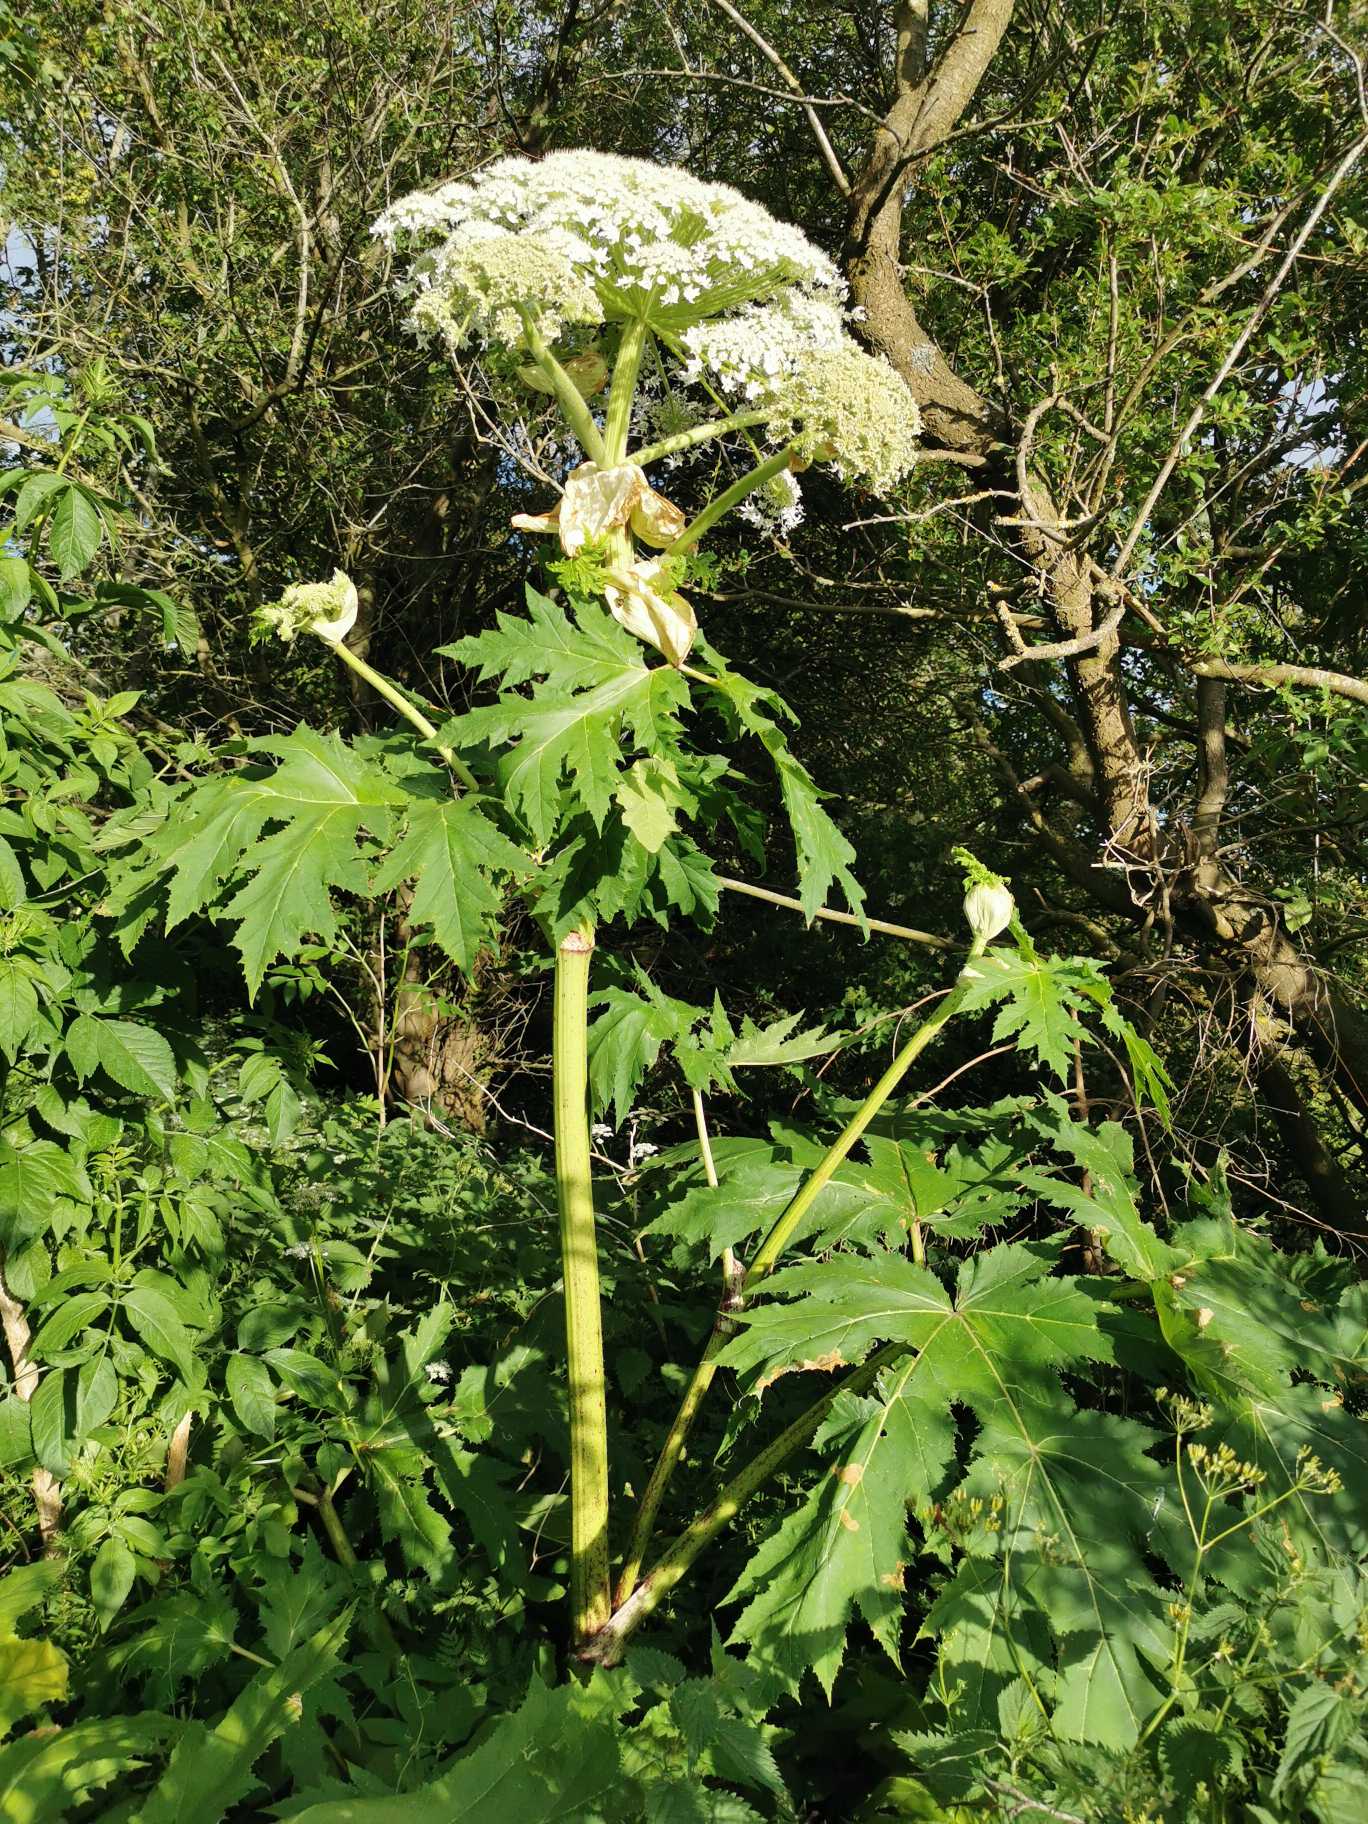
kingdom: Plantae
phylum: Tracheophyta
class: Magnoliopsida
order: Apiales
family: Apiaceae
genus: Heracleum
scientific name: Heracleum mantegazzianum
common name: Kæmpe-bjørneklo
